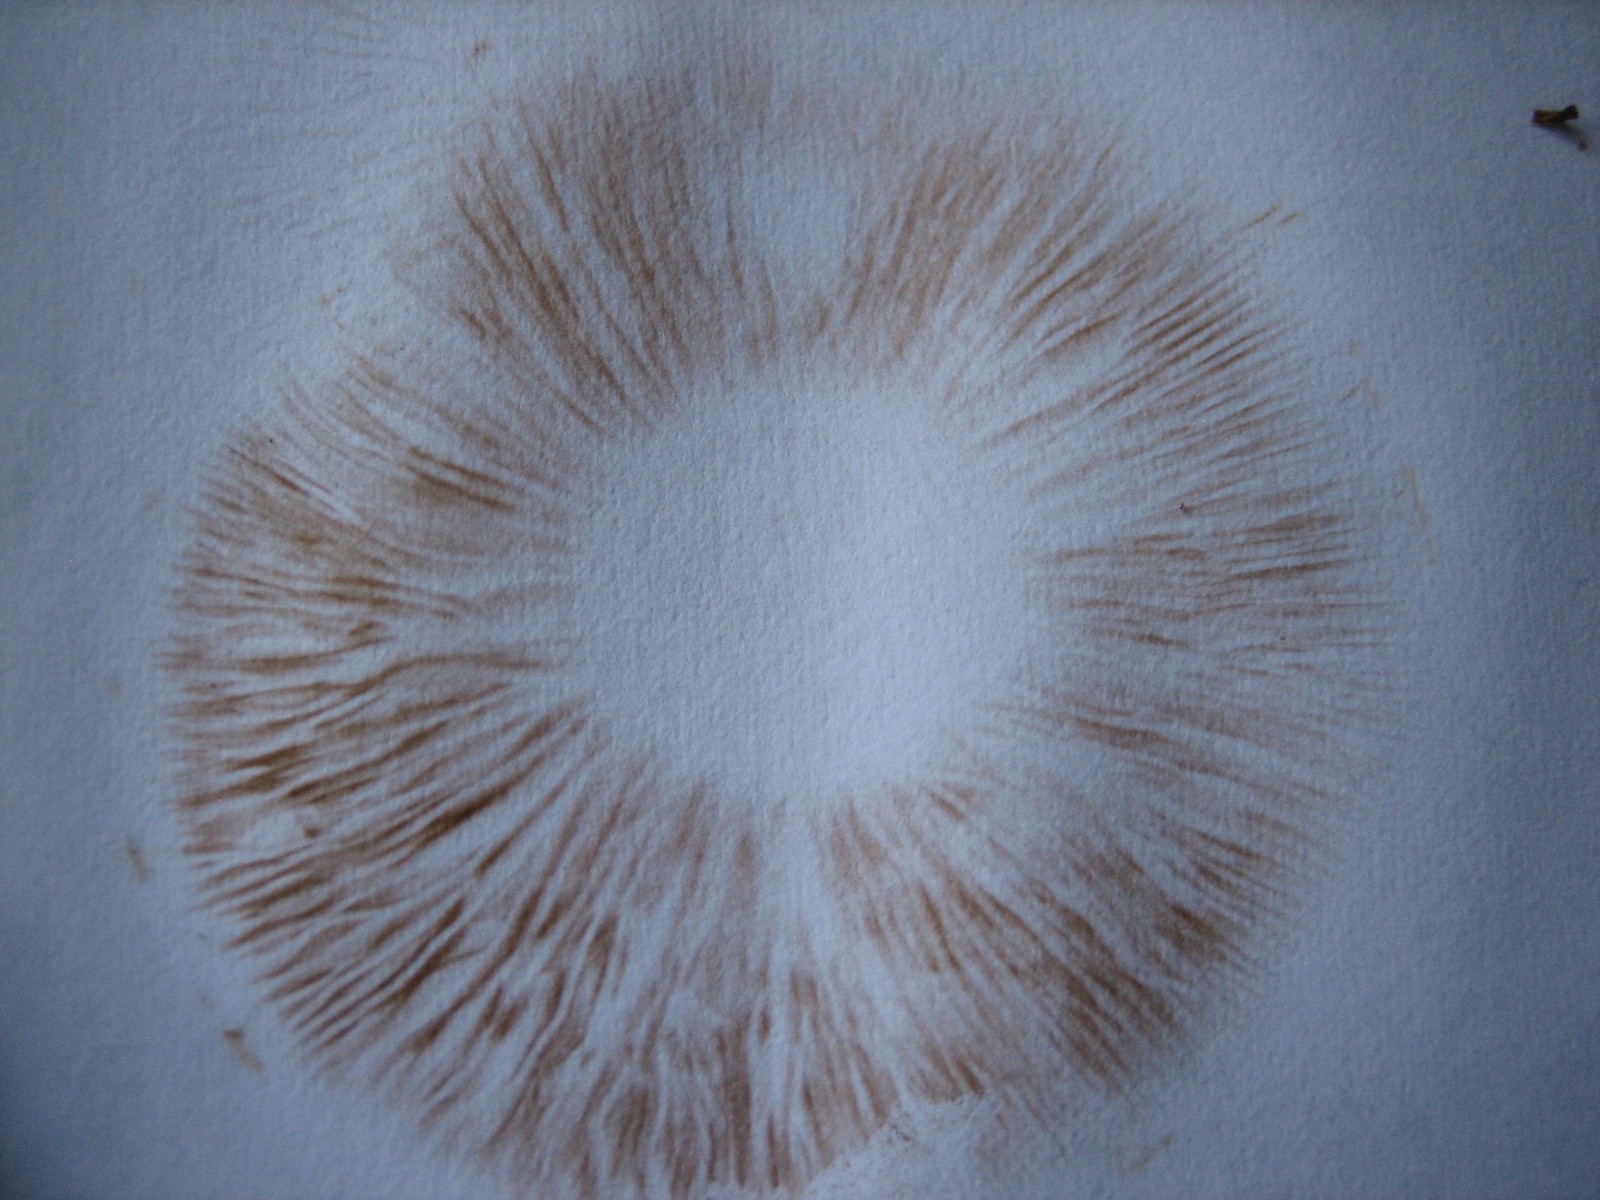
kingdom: Fungi
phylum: Basidiomycota
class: Agaricomycetes
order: Agaricales
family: Tubariaceae
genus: Cyclocybe
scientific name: Cyclocybe erebia
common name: mørk agerhat
